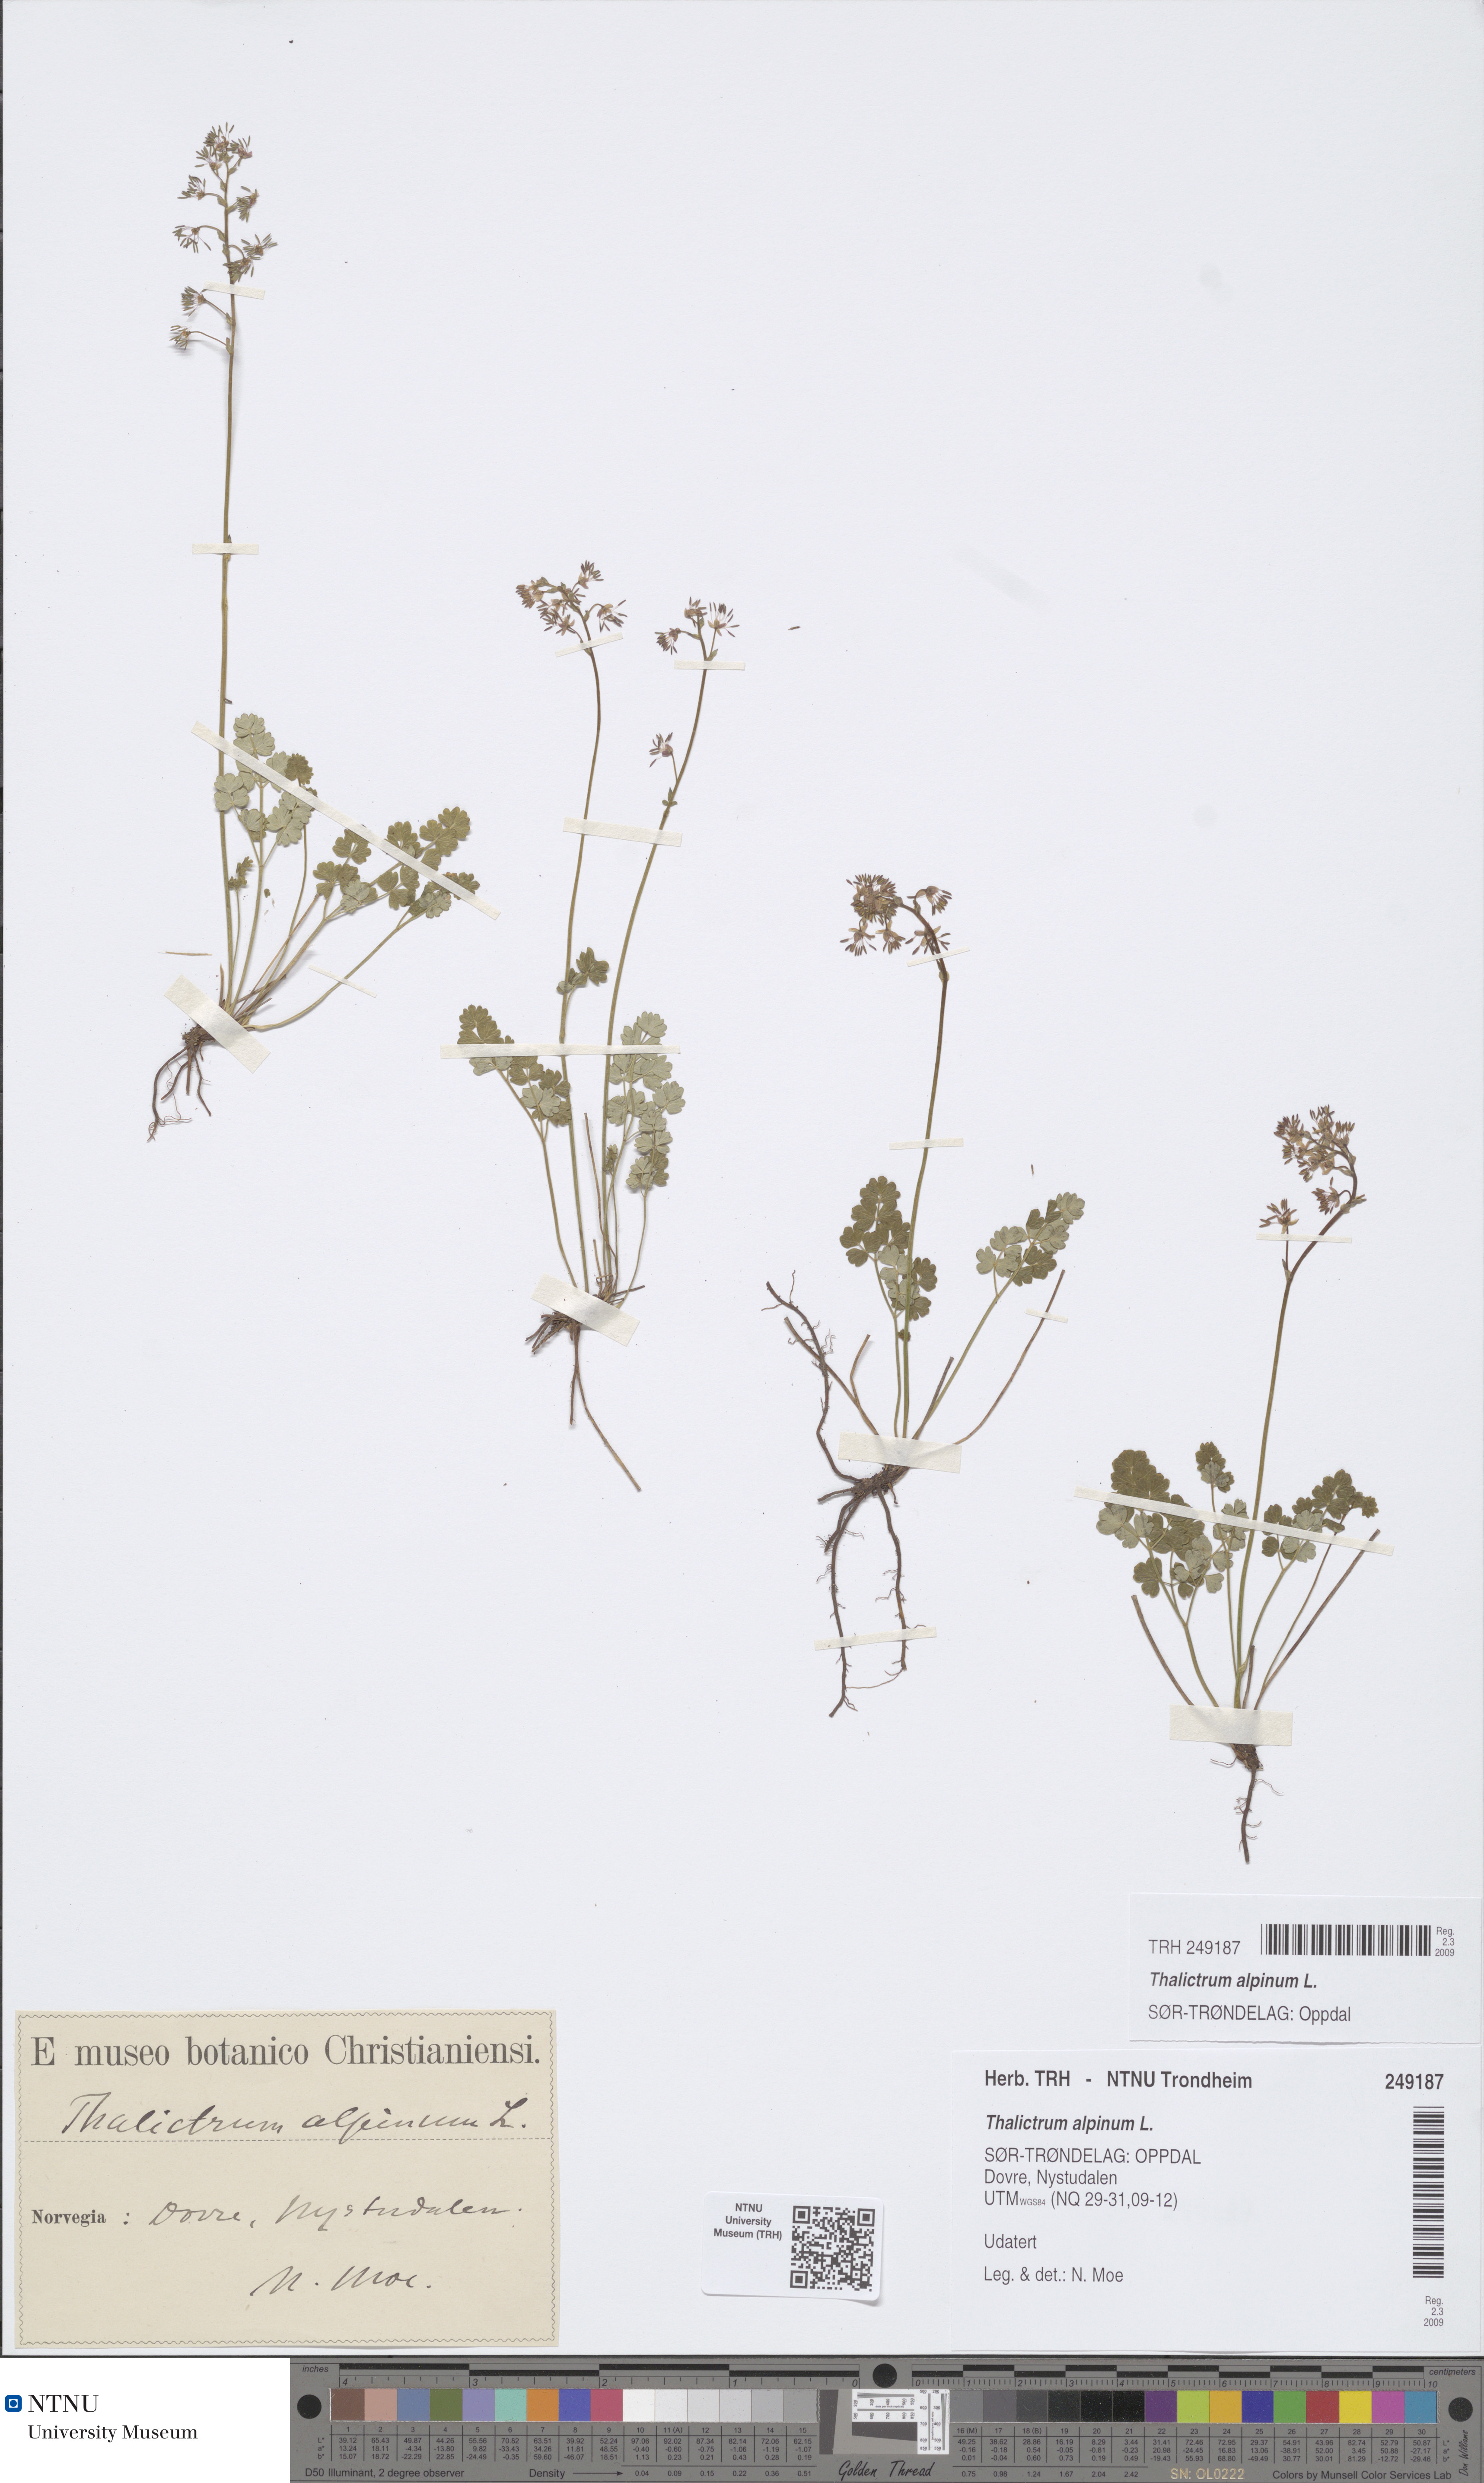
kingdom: Plantae
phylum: Tracheophyta
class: Magnoliopsida
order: Ranunculales
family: Ranunculaceae
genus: Thalictrum
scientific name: Thalictrum alpinum
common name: Alpine meadow-rue
